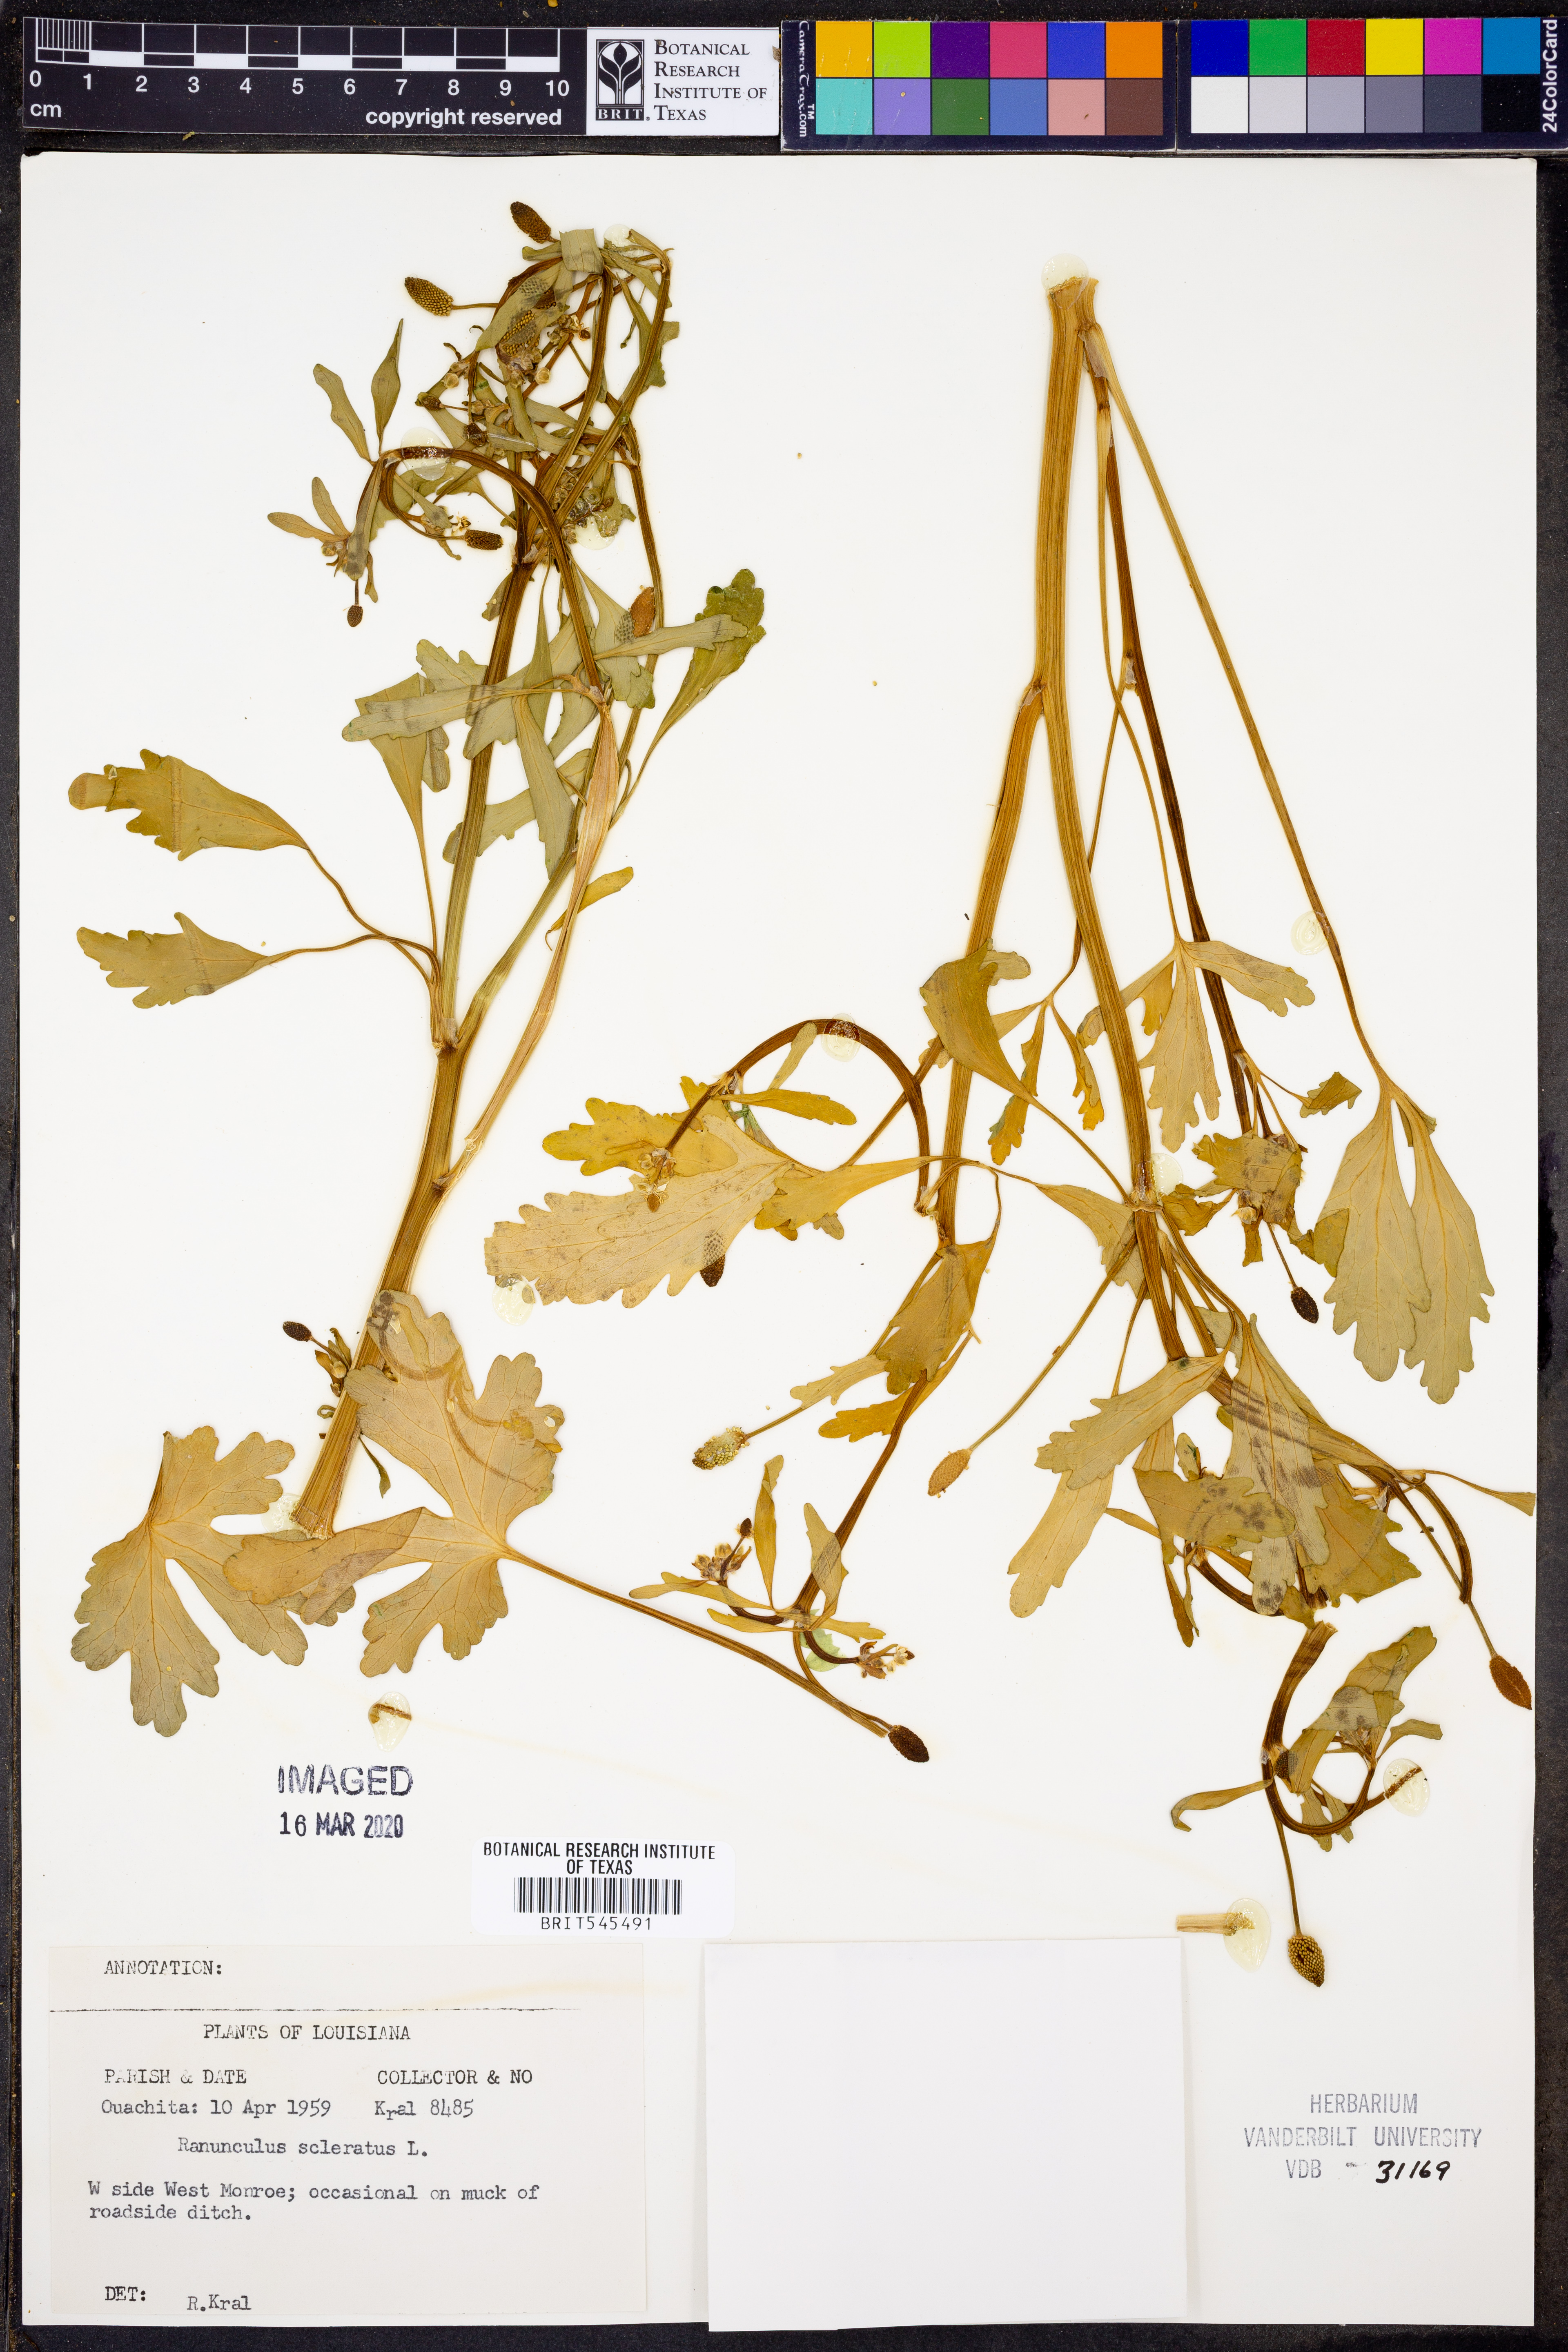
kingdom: Plantae
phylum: Tracheophyta
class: Magnoliopsida
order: Ranunculales
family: Ranunculaceae
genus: Ranunculus
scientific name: Ranunculus sceleratus
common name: Celery-leaved buttercup
